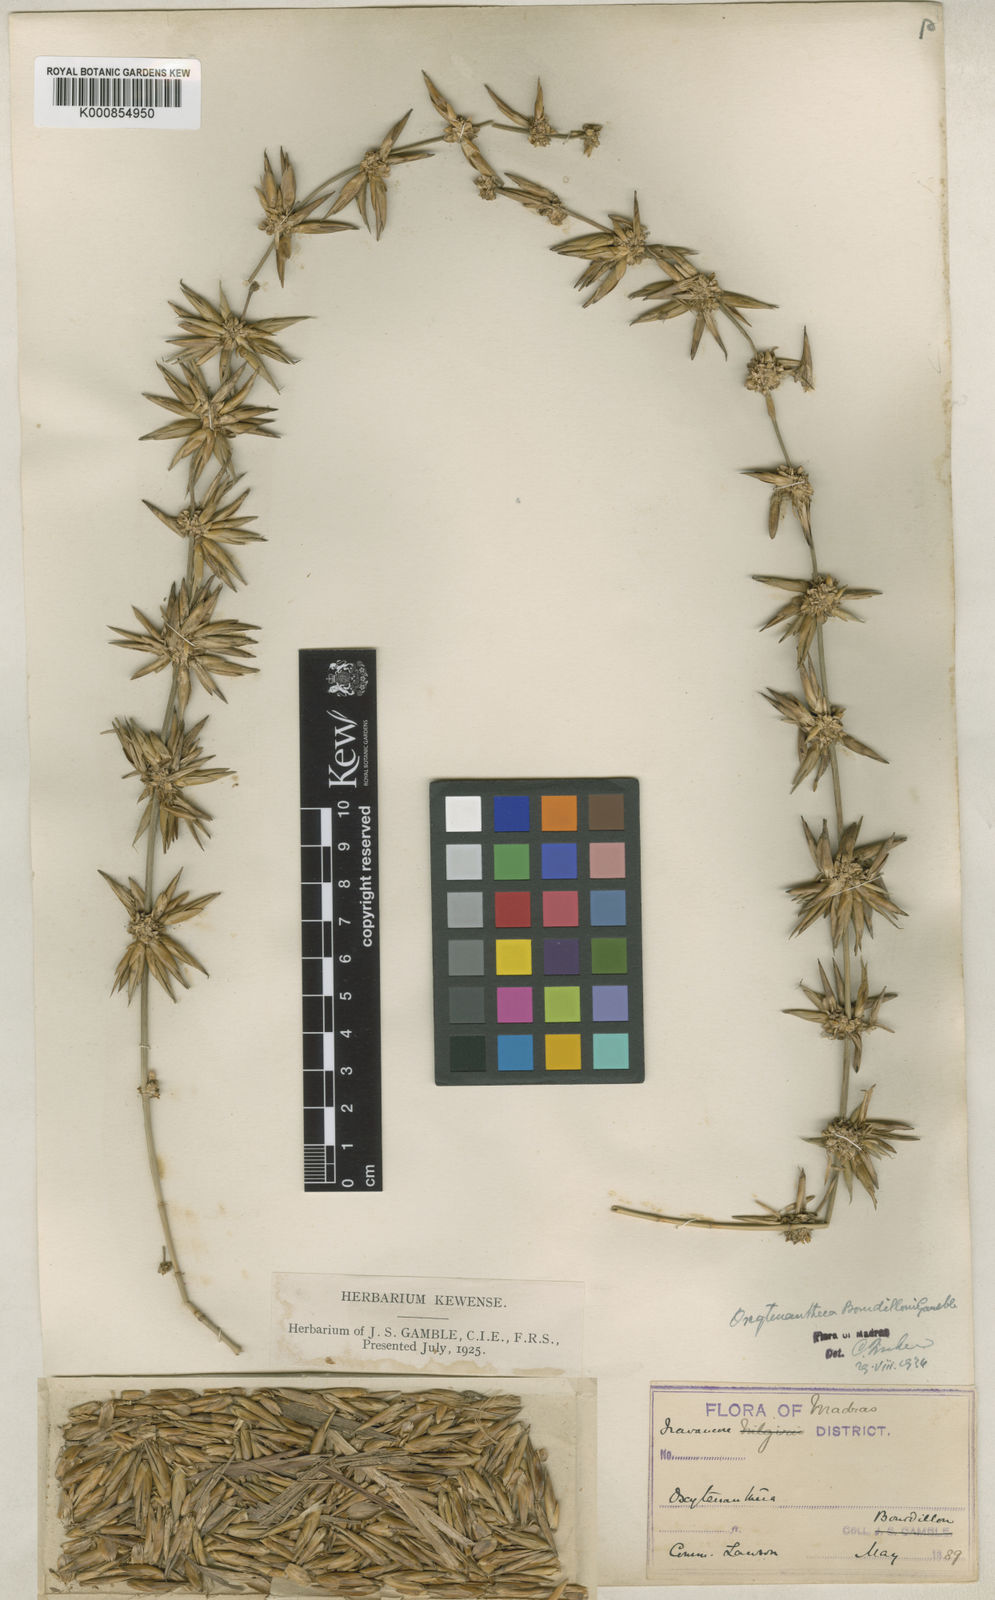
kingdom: Plantae
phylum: Tracheophyta
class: Liliopsida
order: Poales
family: Poaceae
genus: Dendrocalamus
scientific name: Dendrocalamus
